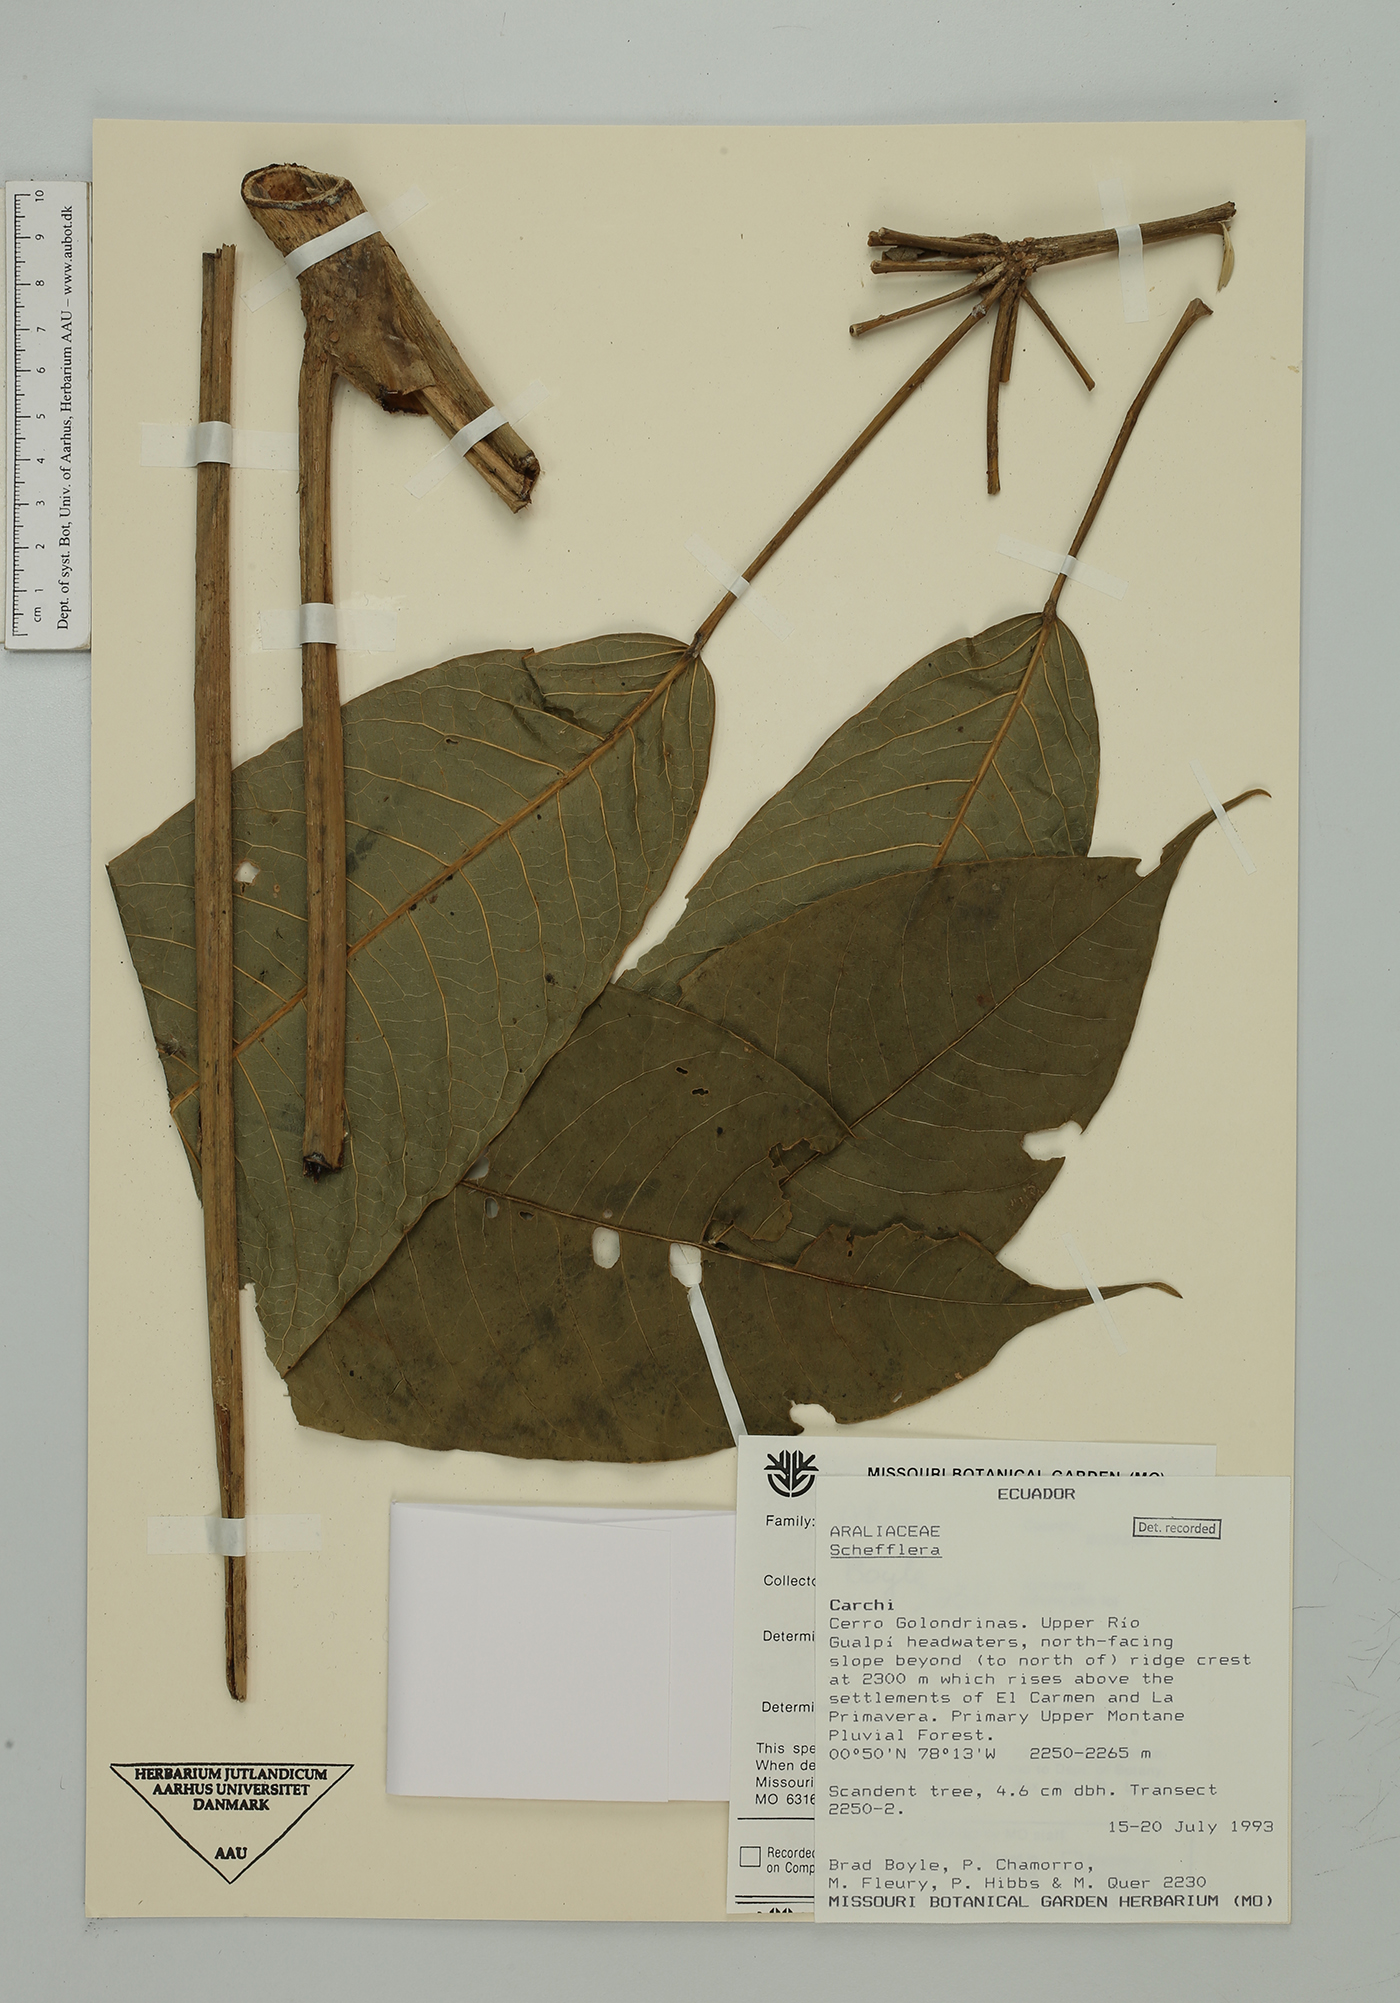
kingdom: Plantae
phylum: Tracheophyta
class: Magnoliopsida
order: Apiales
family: Araliaceae
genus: Sciodaphyllum
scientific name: Sciodaphyllum
